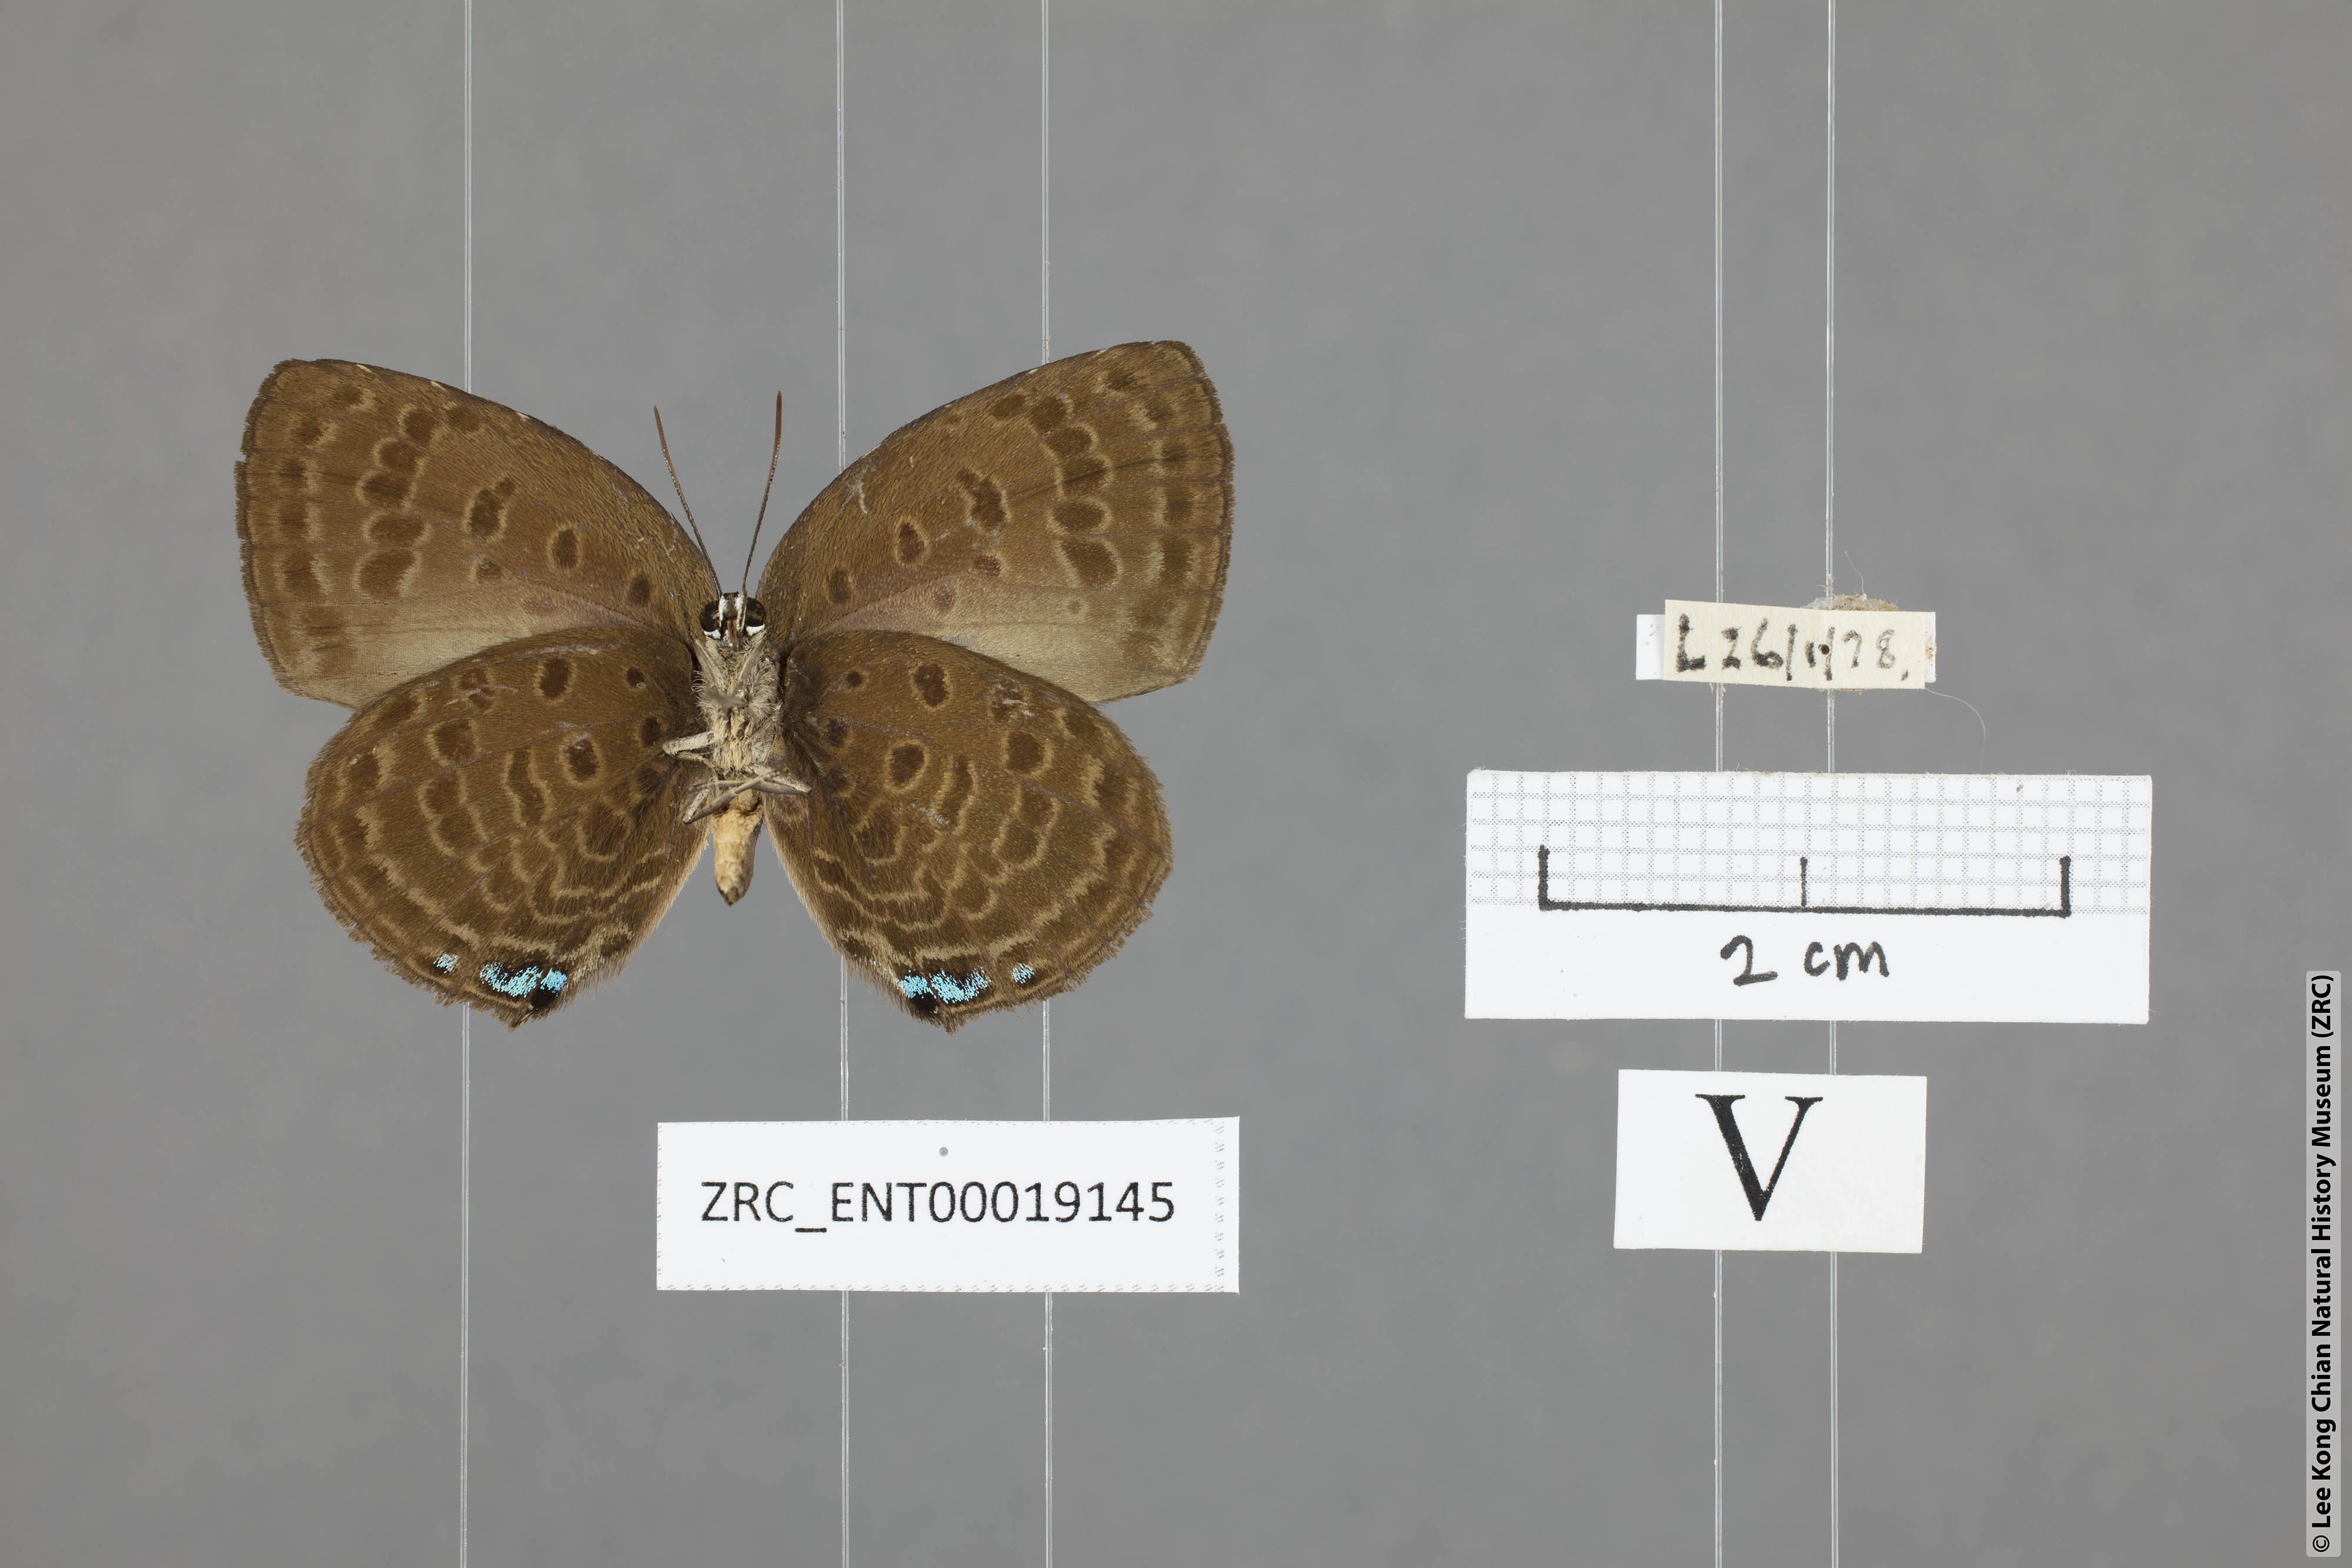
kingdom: Animalia
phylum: Arthropoda
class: Insecta
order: Lepidoptera
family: Lycaenidae
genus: Arhopala
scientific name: Arhopala amphimuta
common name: Broad yellow oakblue
